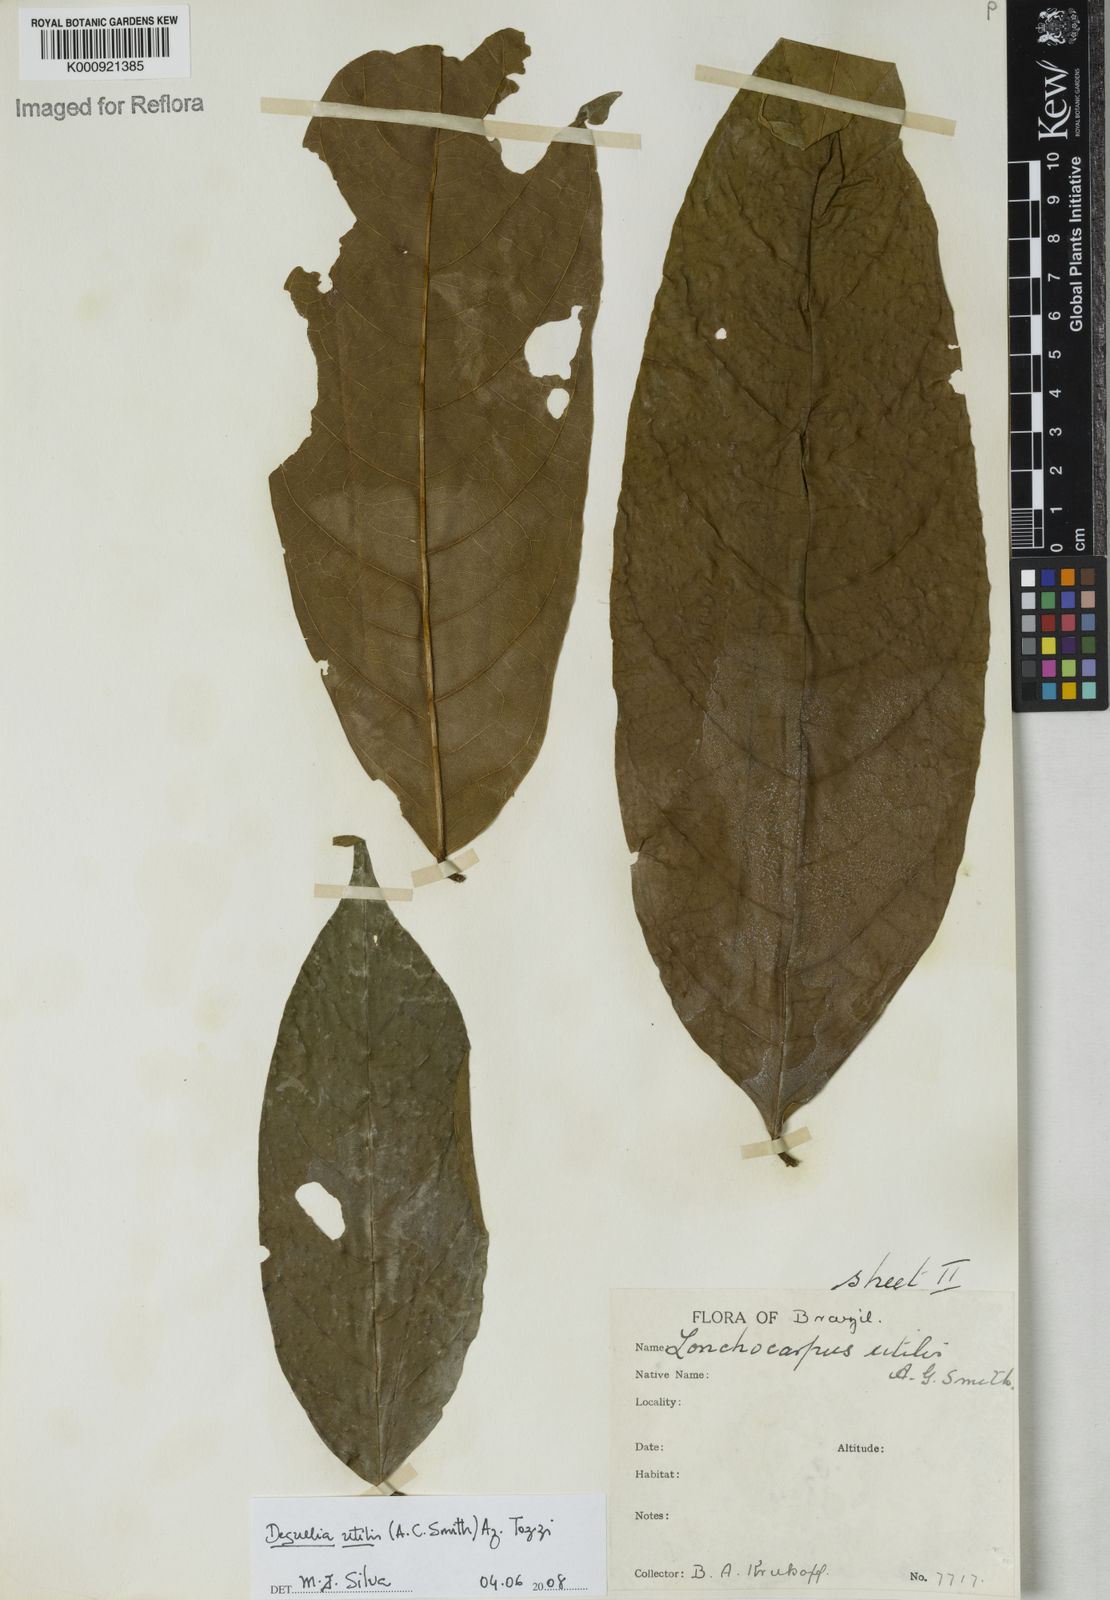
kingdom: Plantae
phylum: Tracheophyta
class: Magnoliopsida
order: Fabales
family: Fabaceae
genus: Deguelia
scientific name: Deguelia utilis
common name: Timbo
